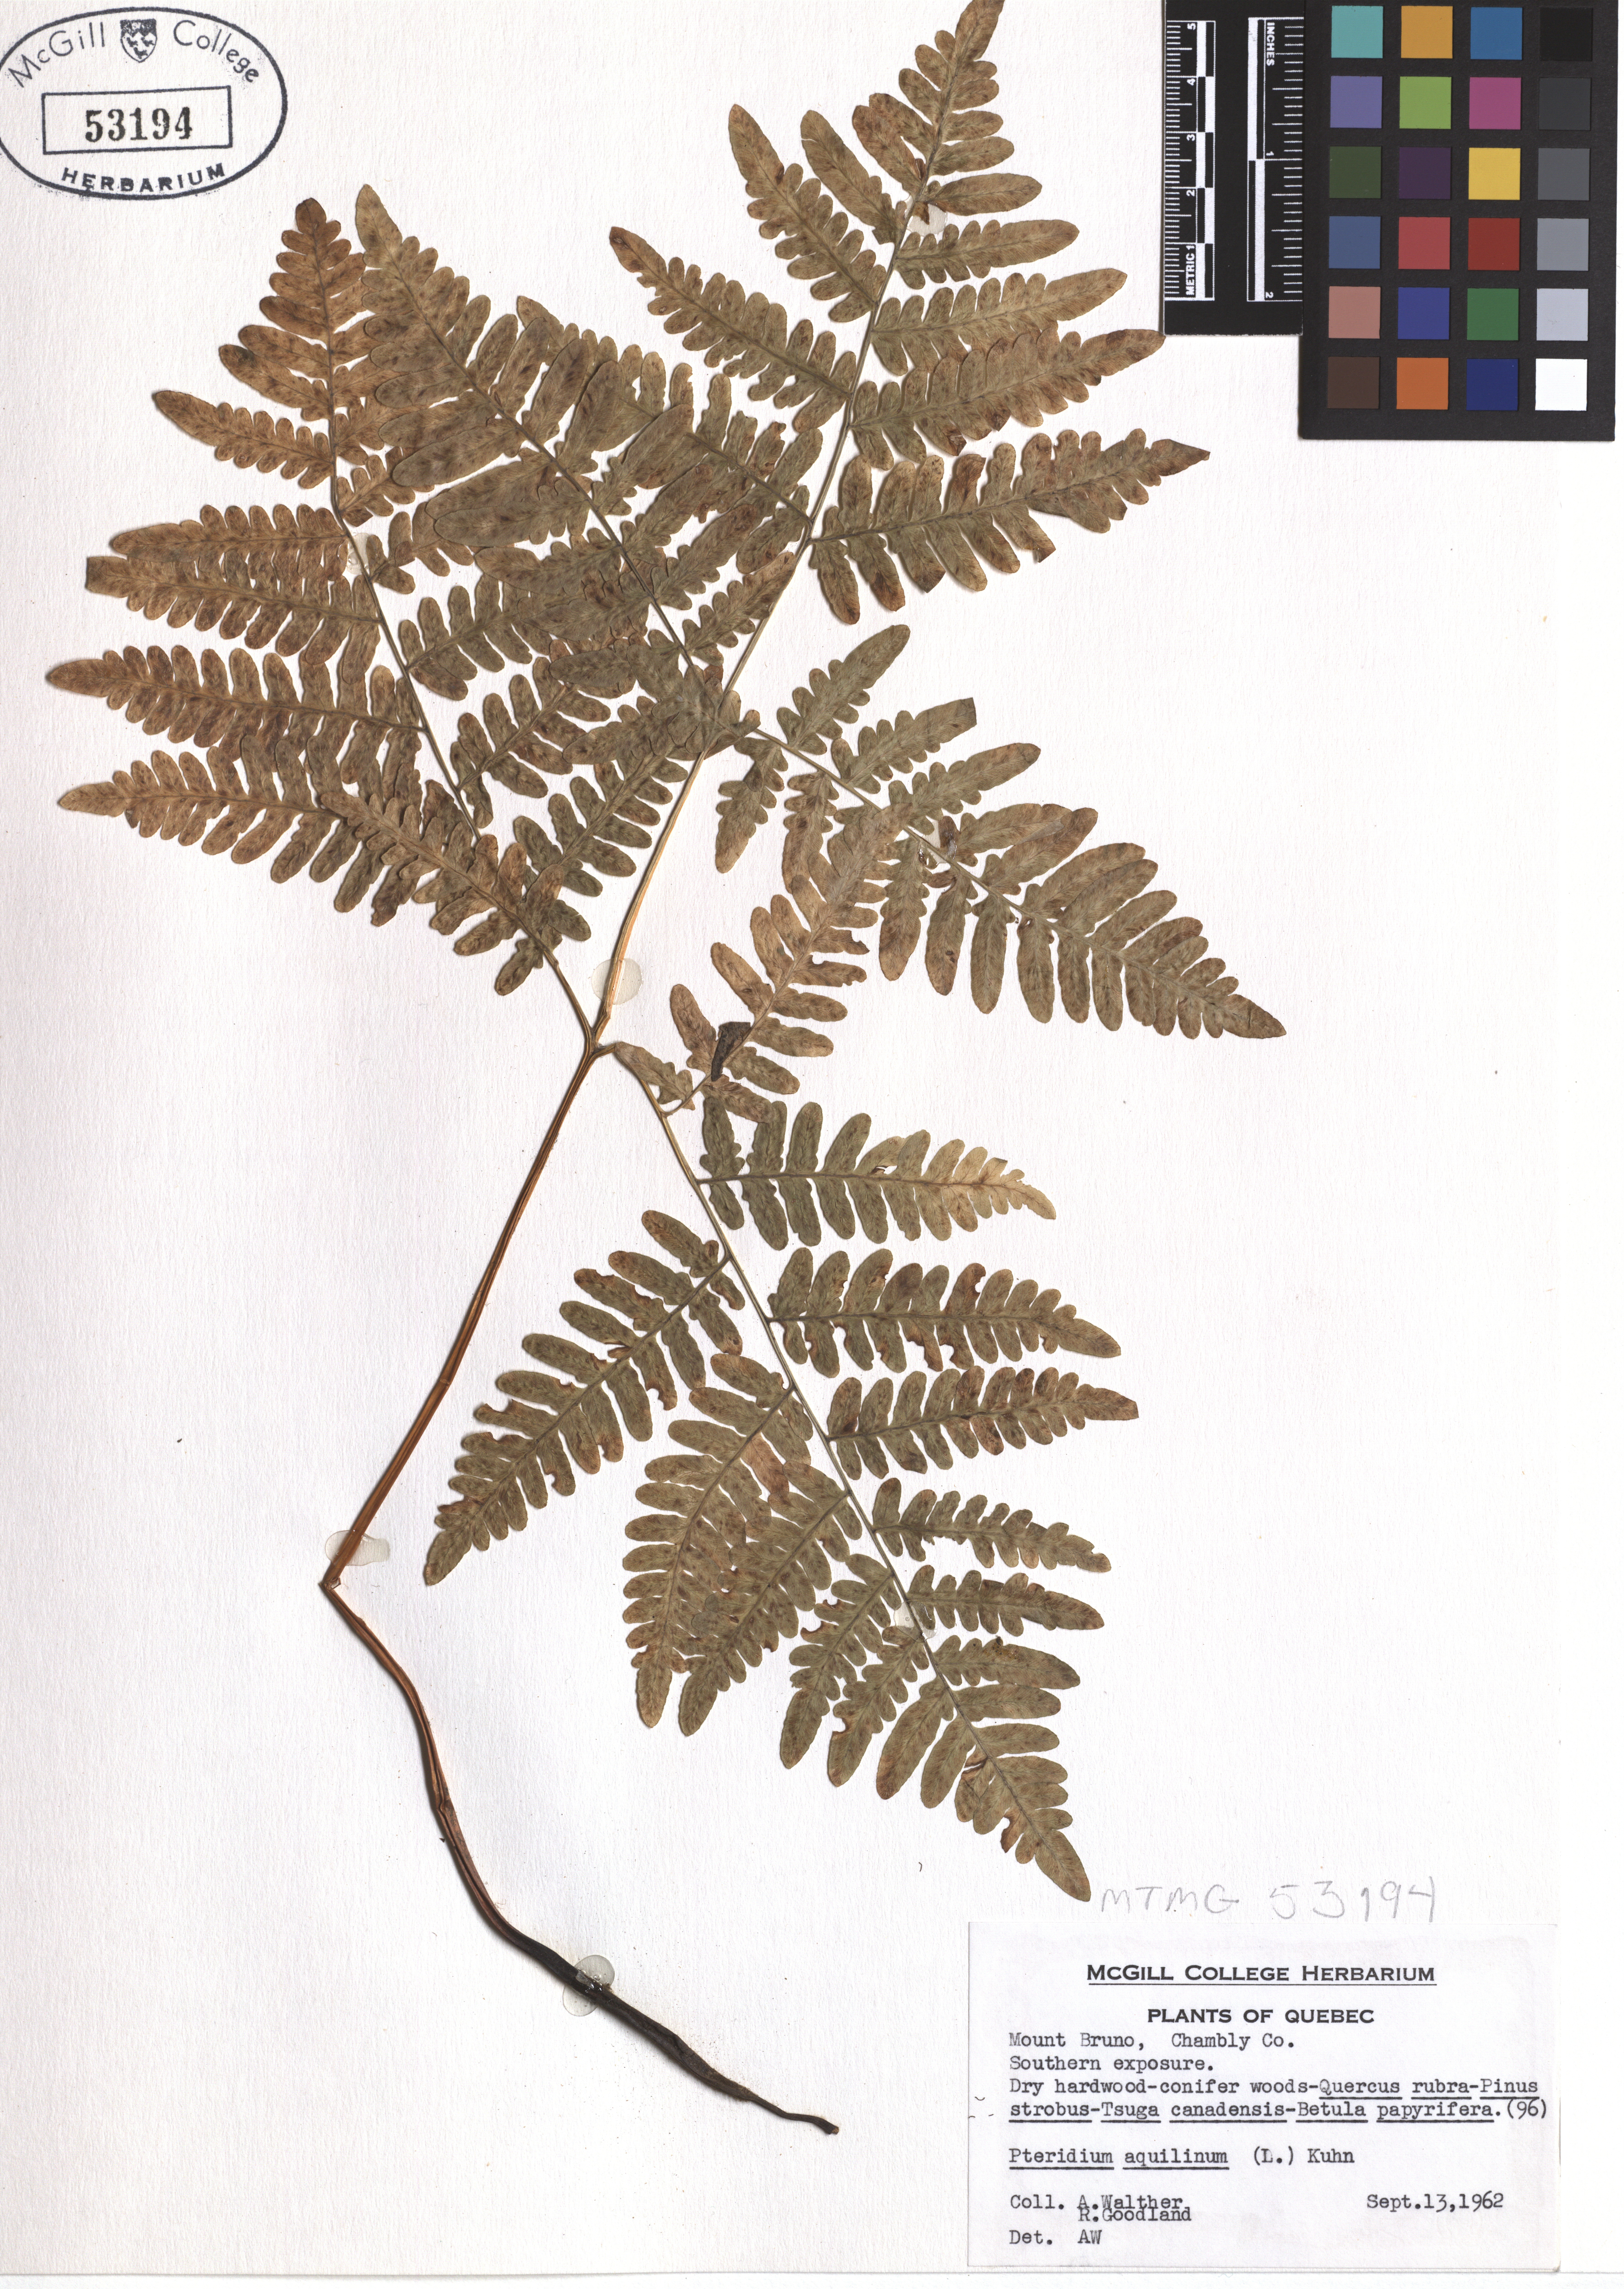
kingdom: Plantae
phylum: Tracheophyta
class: Polypodiopsida
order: Polypodiales
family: Dennstaedtiaceae
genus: Pteridium
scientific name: Pteridium aquilinum
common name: Bracken
